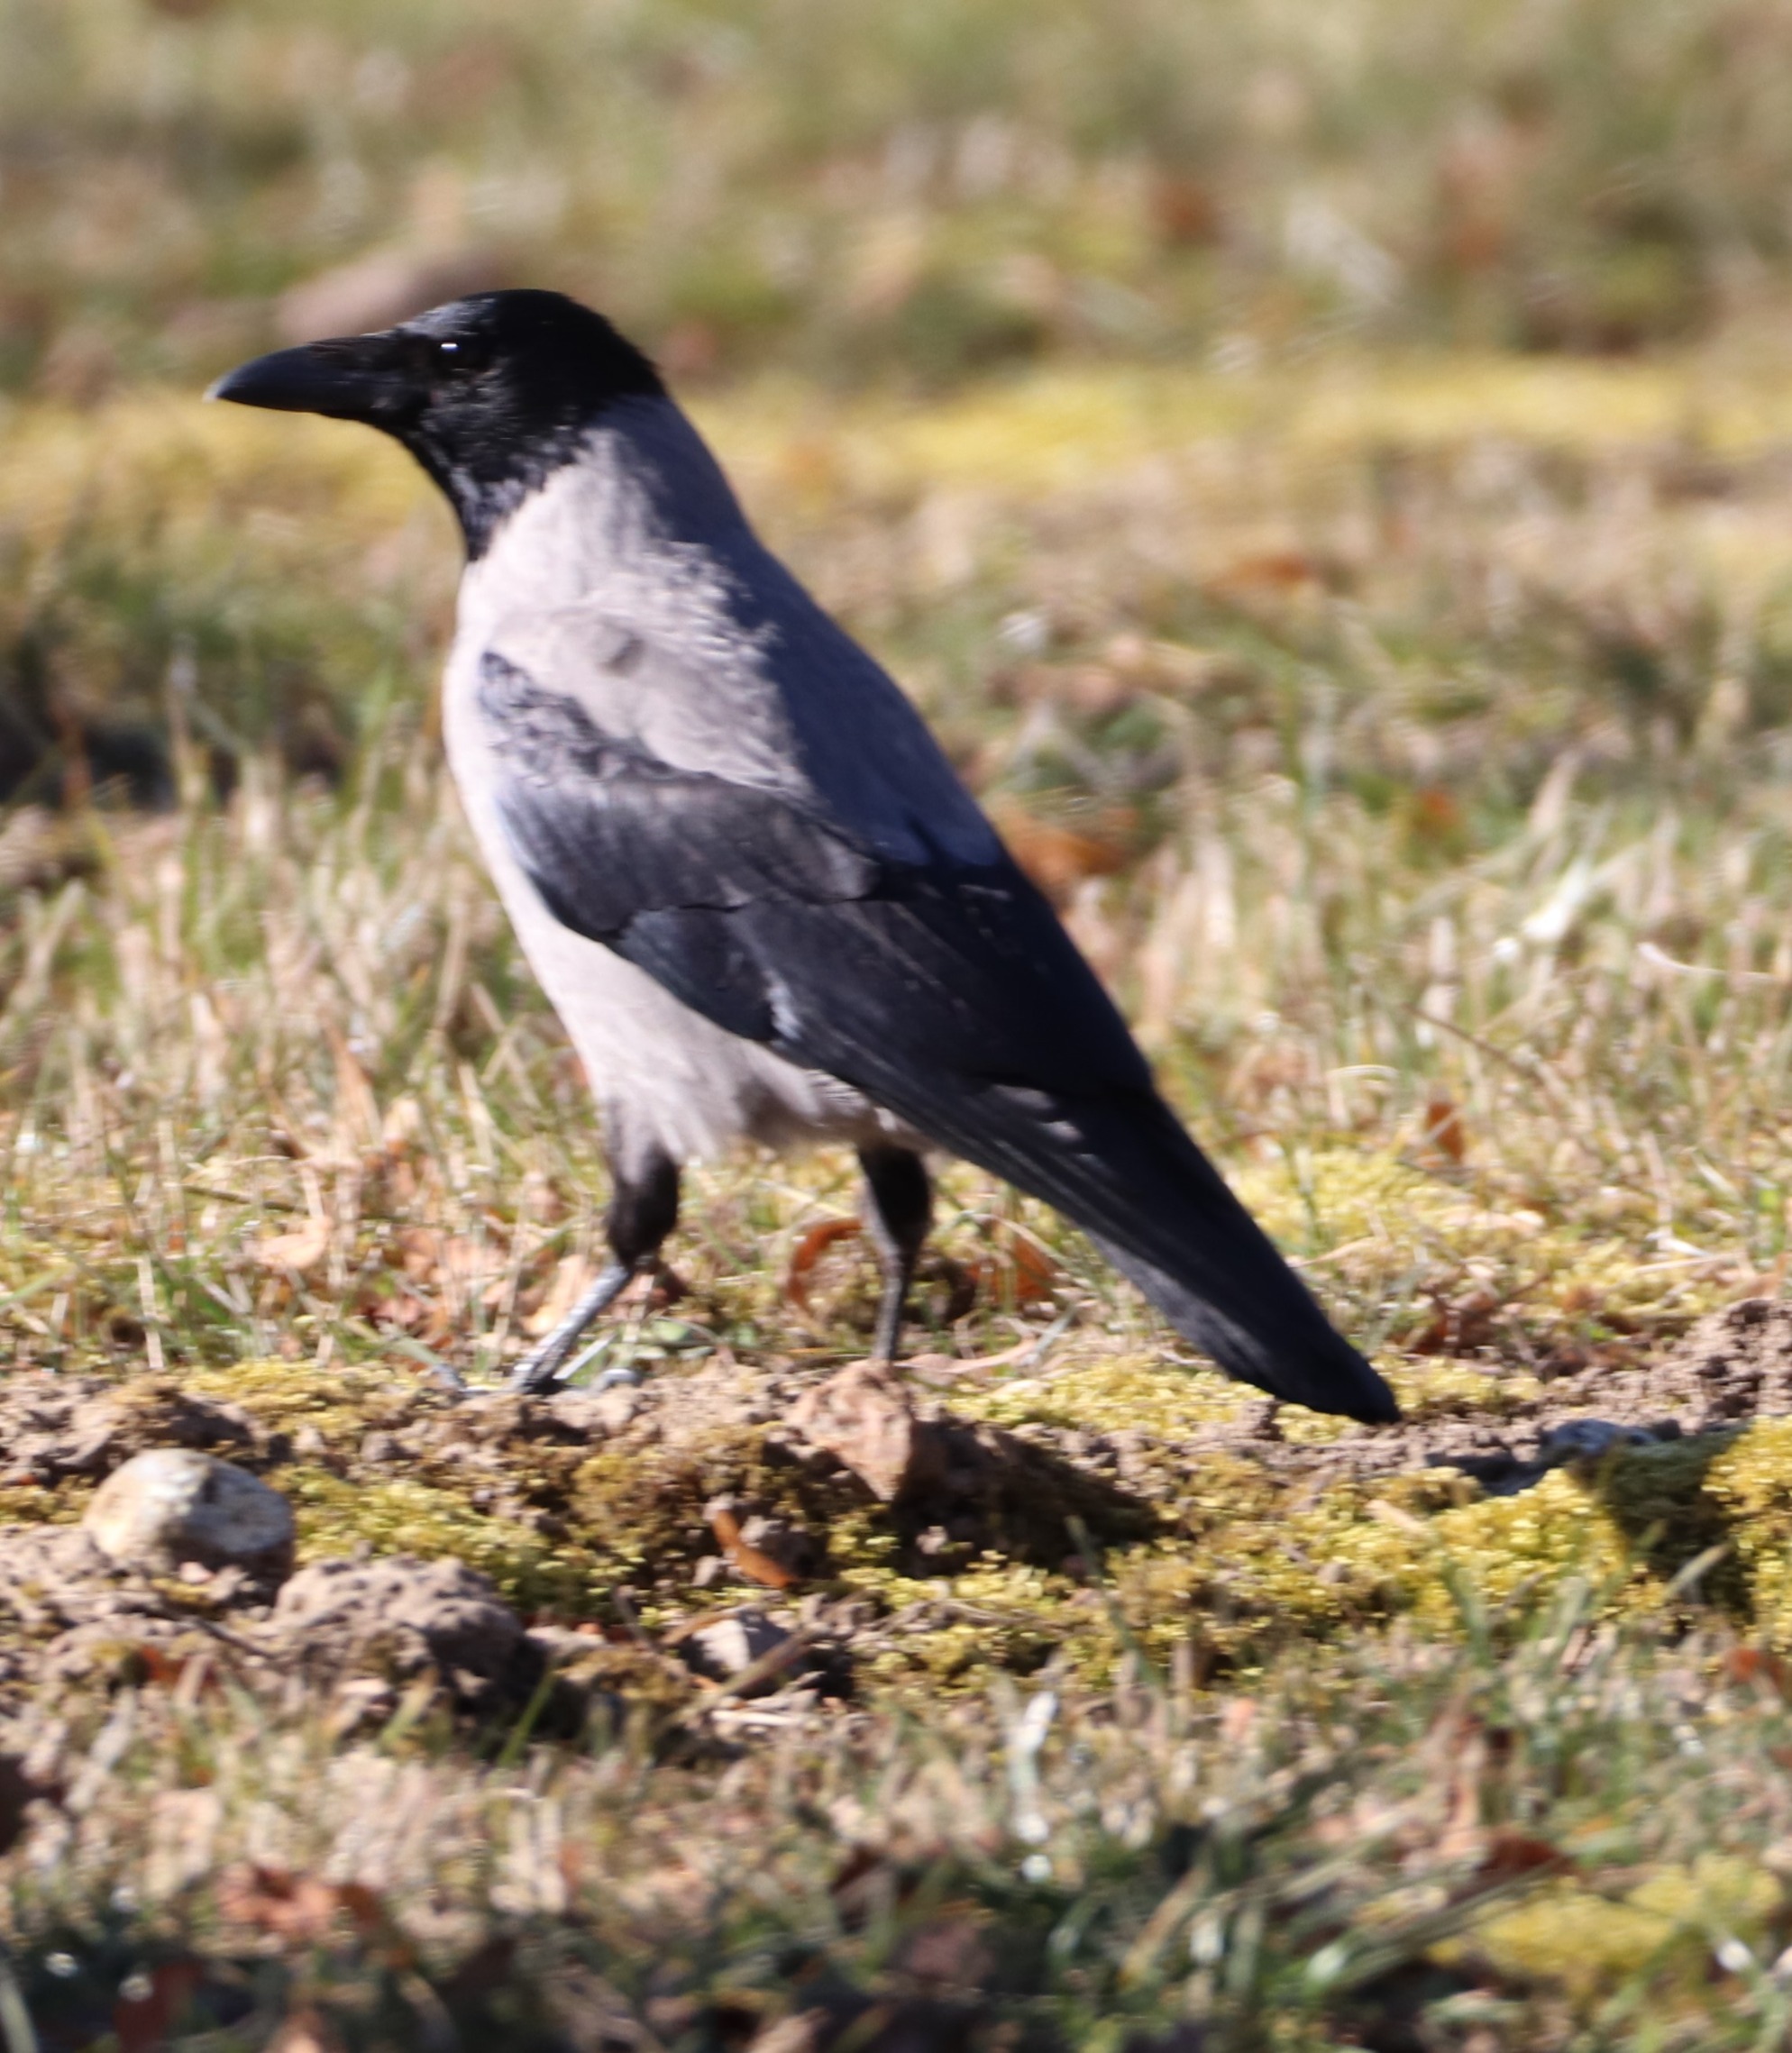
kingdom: Animalia
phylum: Chordata
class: Aves
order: Passeriformes
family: Corvidae
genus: Corvus
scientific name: Corvus cornix
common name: Gråkrage
